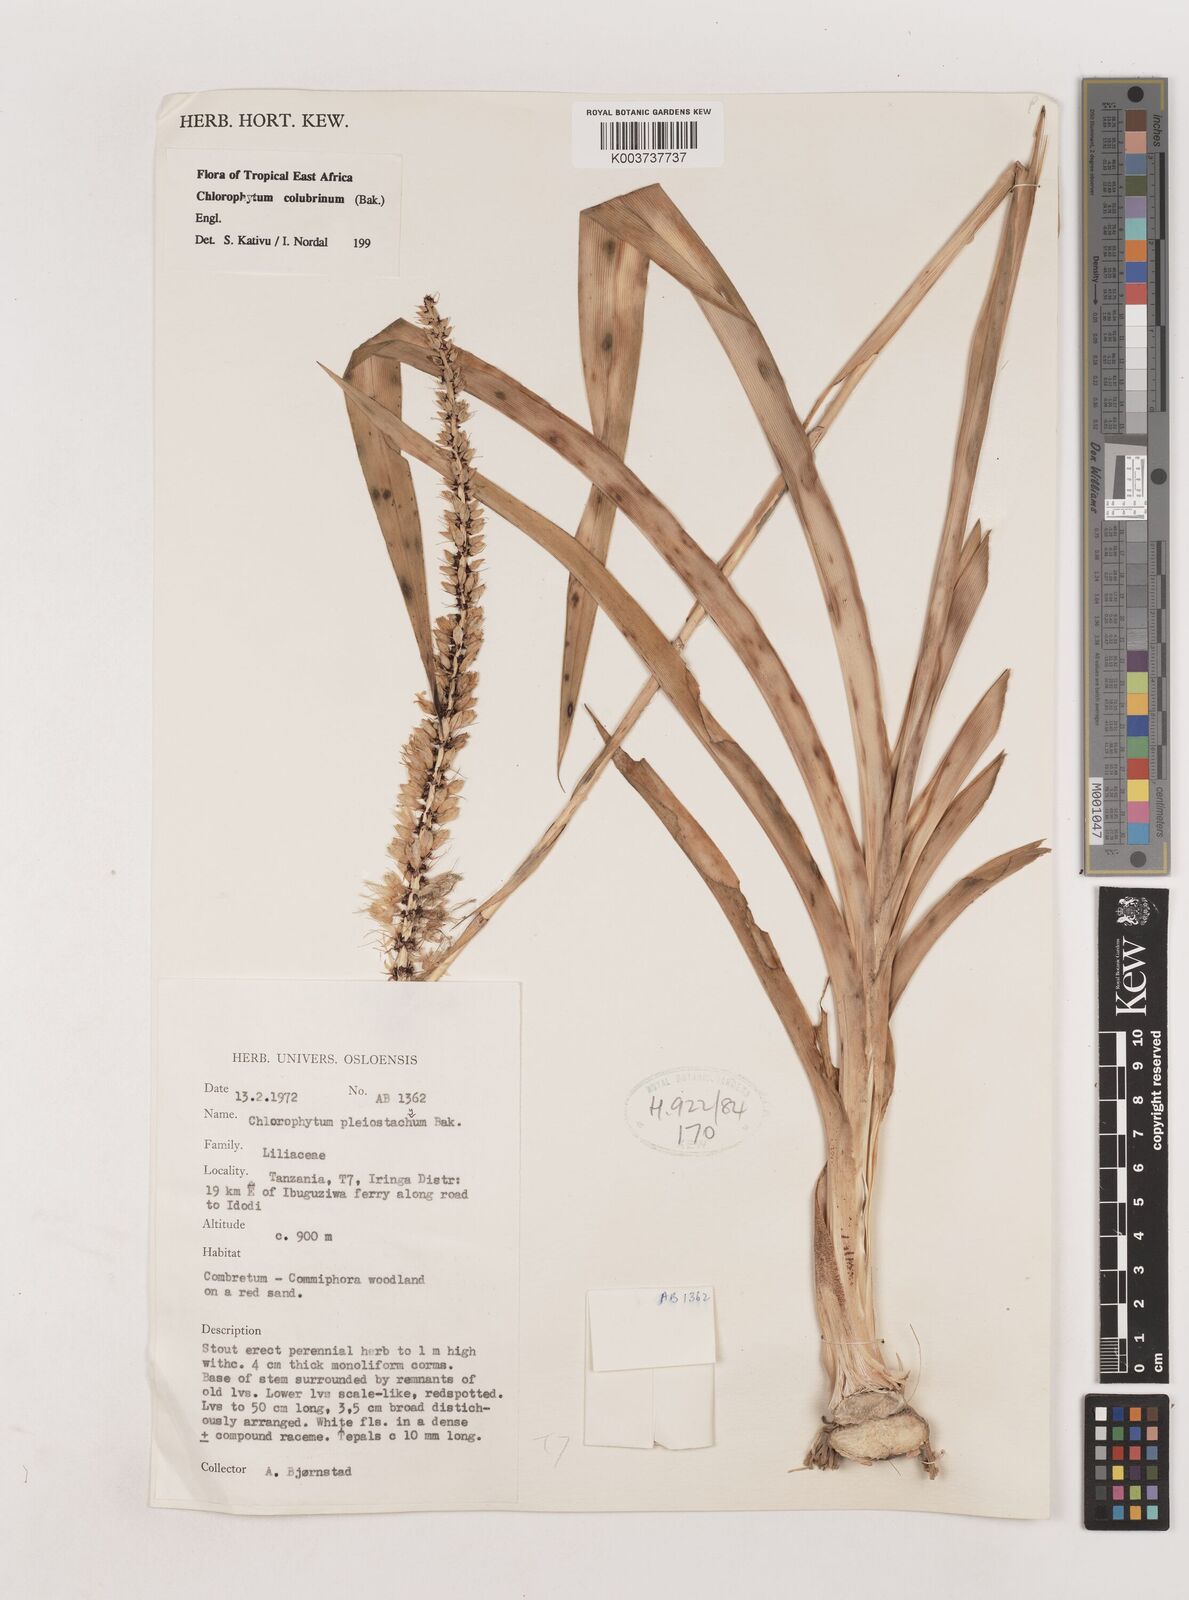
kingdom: Plantae
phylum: Tracheophyta
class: Liliopsida
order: Asparagales
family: Asparagaceae
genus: Chlorophytum
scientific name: Chlorophytum colubrinum
